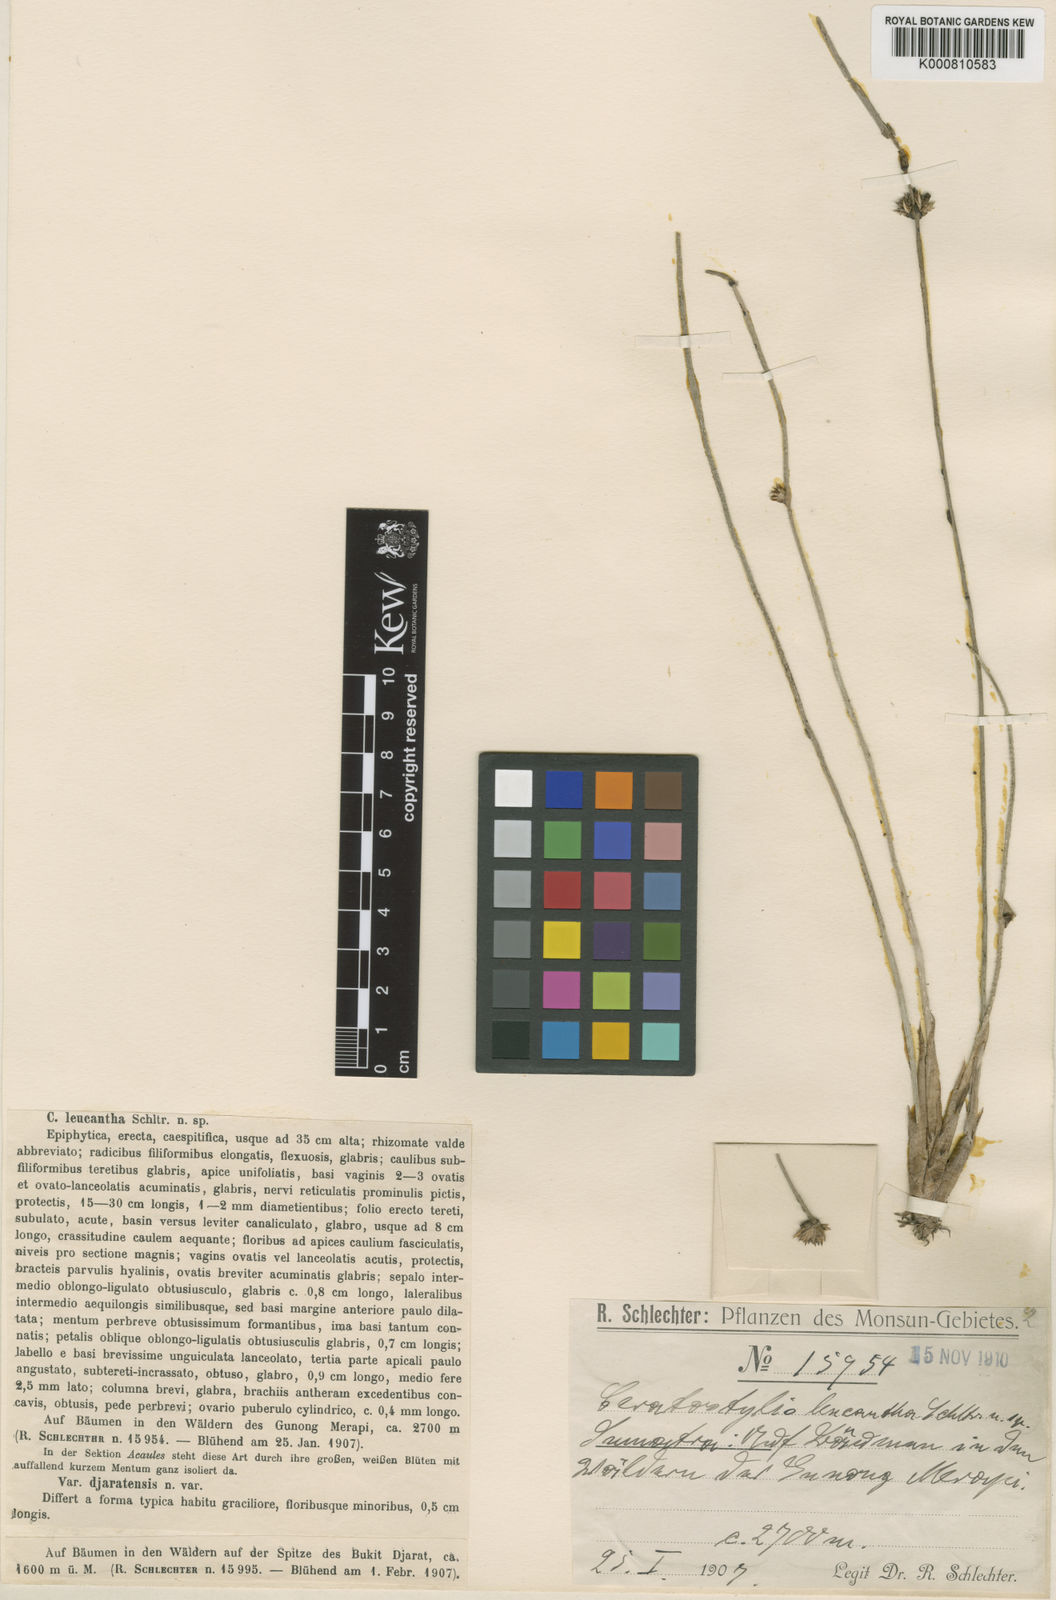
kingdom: Plantae
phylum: Tracheophyta
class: Liliopsida
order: Asparagales
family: Orchidaceae
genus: Ceratostylis
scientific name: Ceratostylis leucantha
